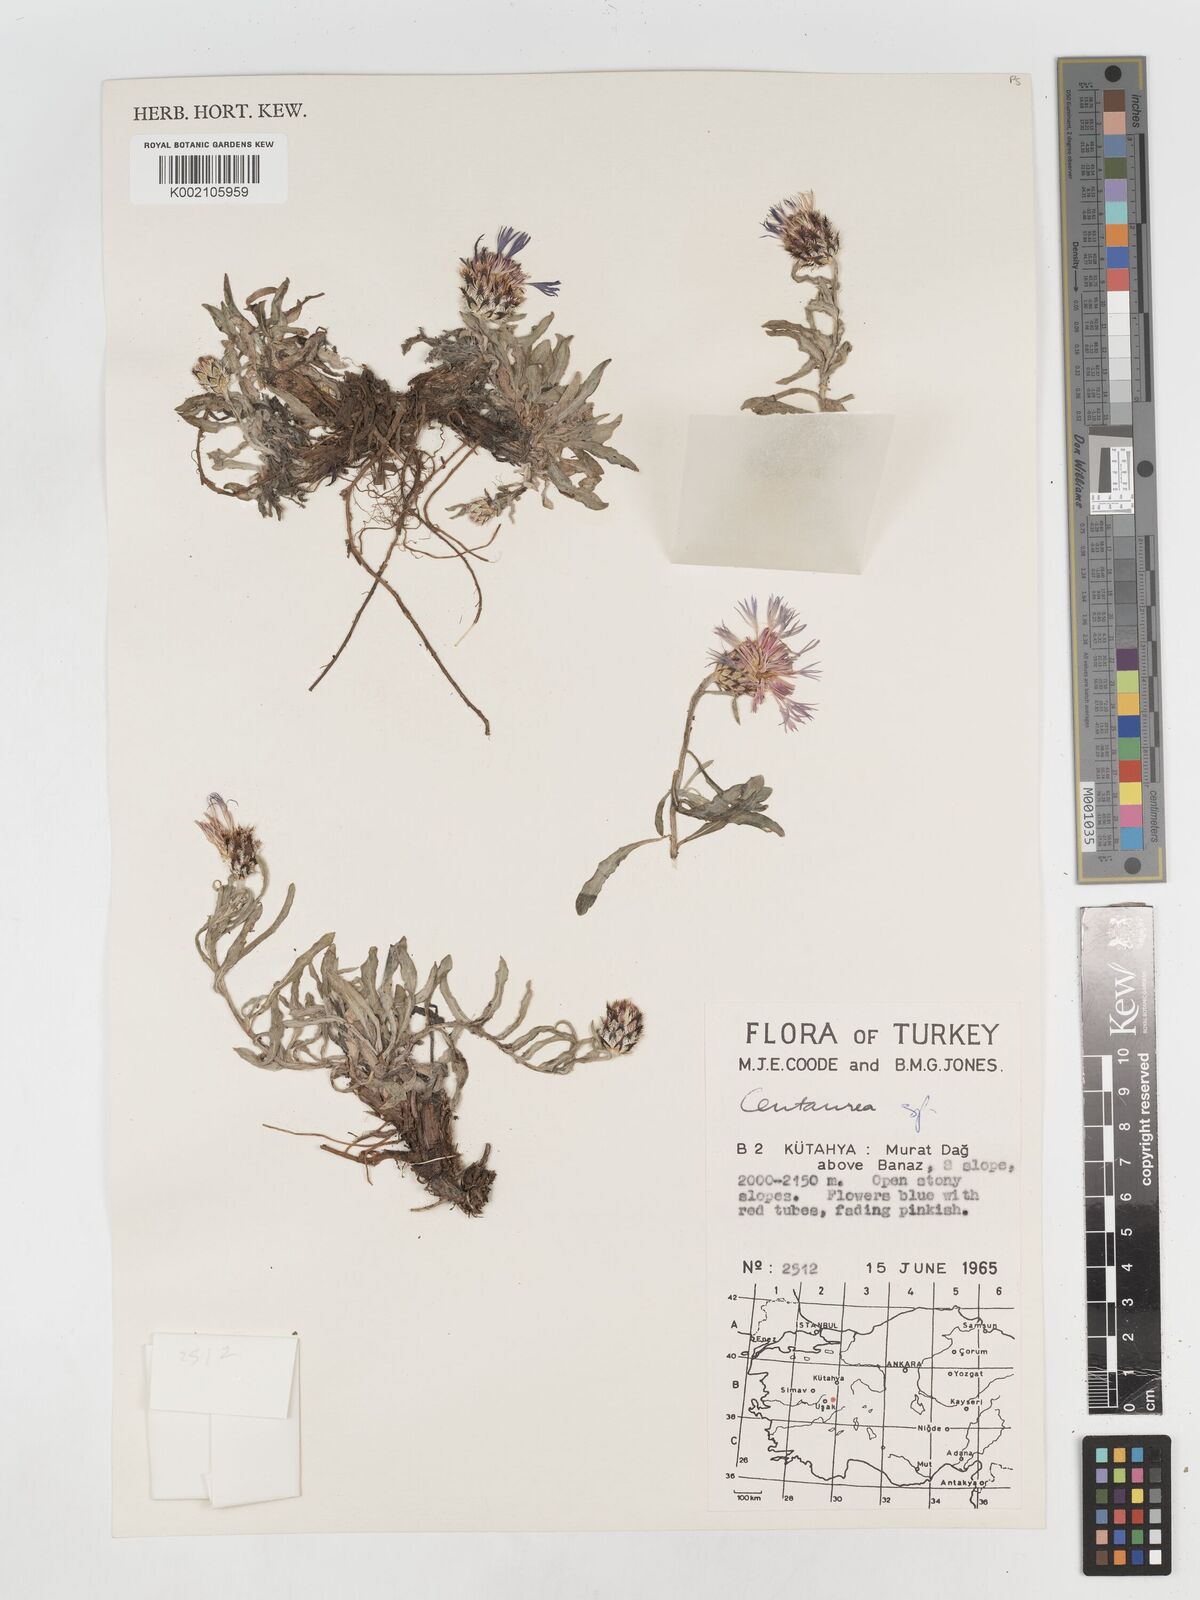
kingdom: Plantae
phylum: Tracheophyta
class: Magnoliopsida
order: Asterales
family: Asteraceae
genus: Centaurea
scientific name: Centaurea
